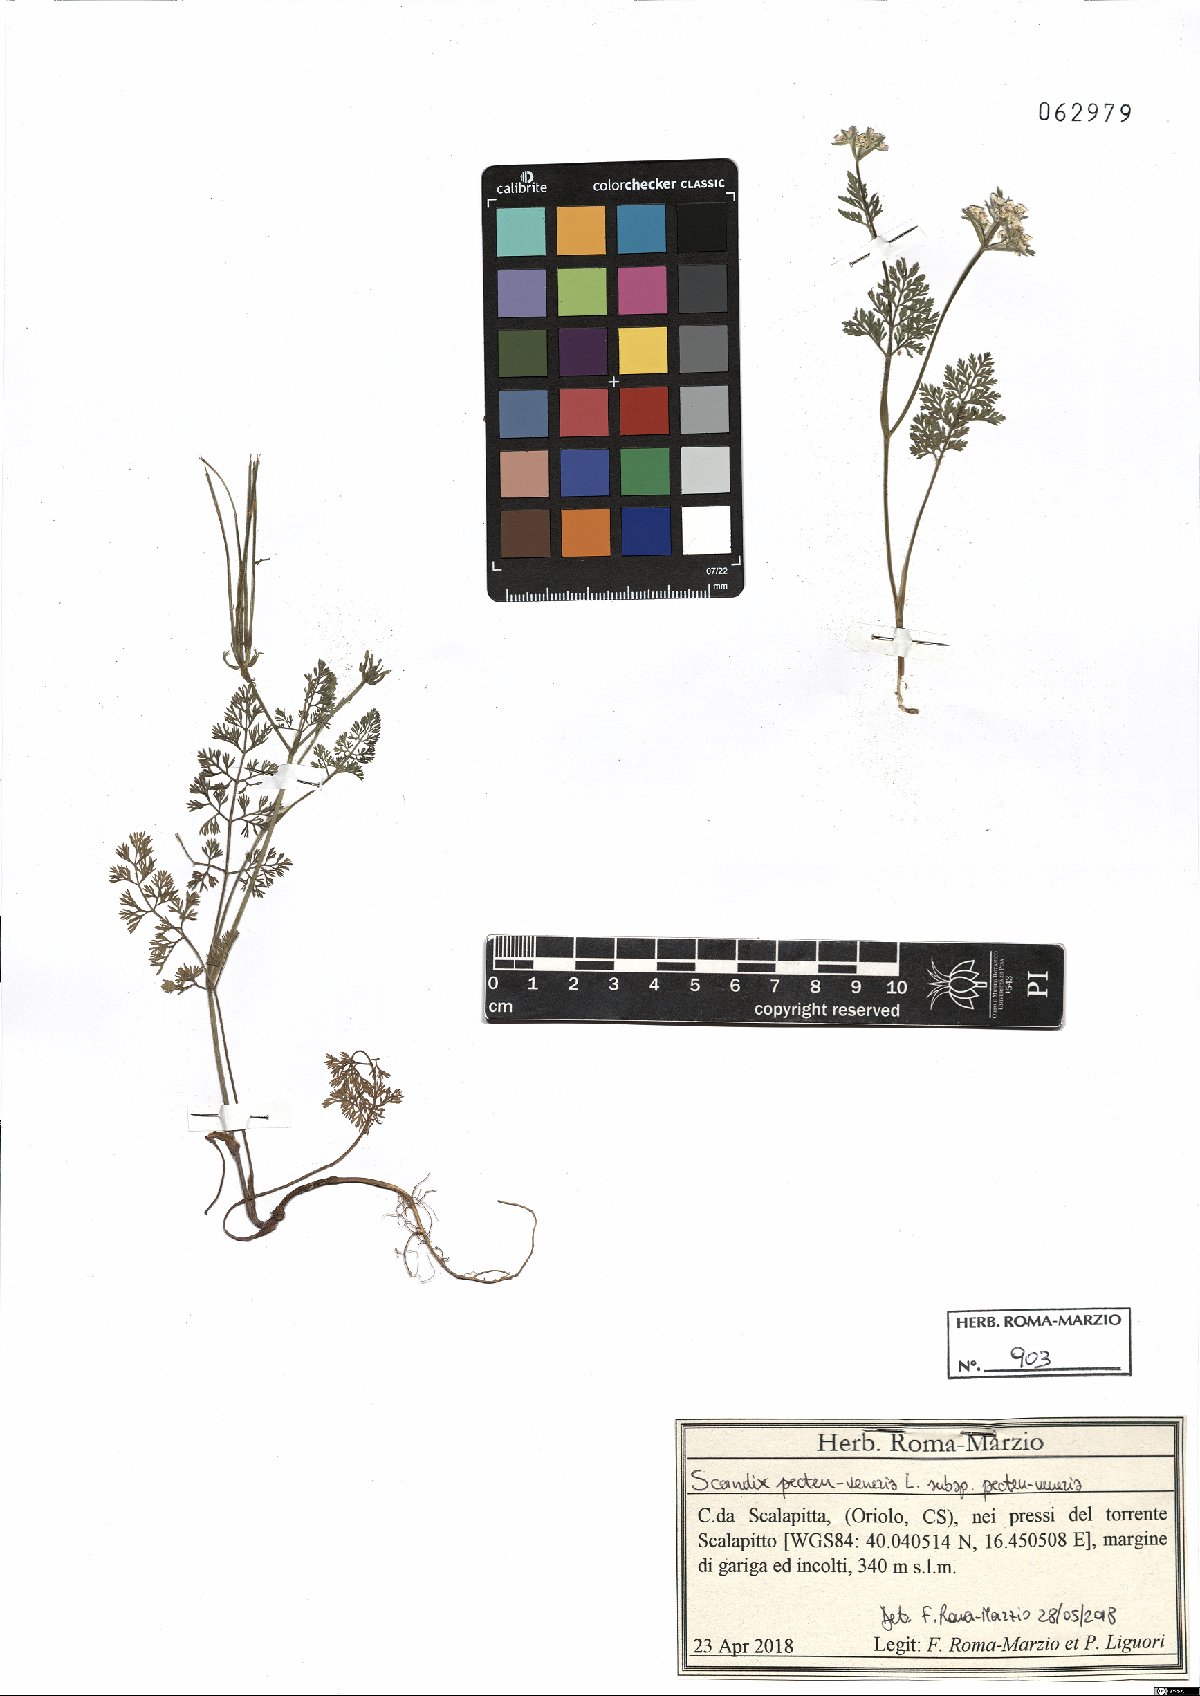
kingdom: Plantae
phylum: Tracheophyta
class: Magnoliopsida
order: Apiales
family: Apiaceae
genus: Scandix
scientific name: Scandix pecten-veneris
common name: Shepherd's-needle
